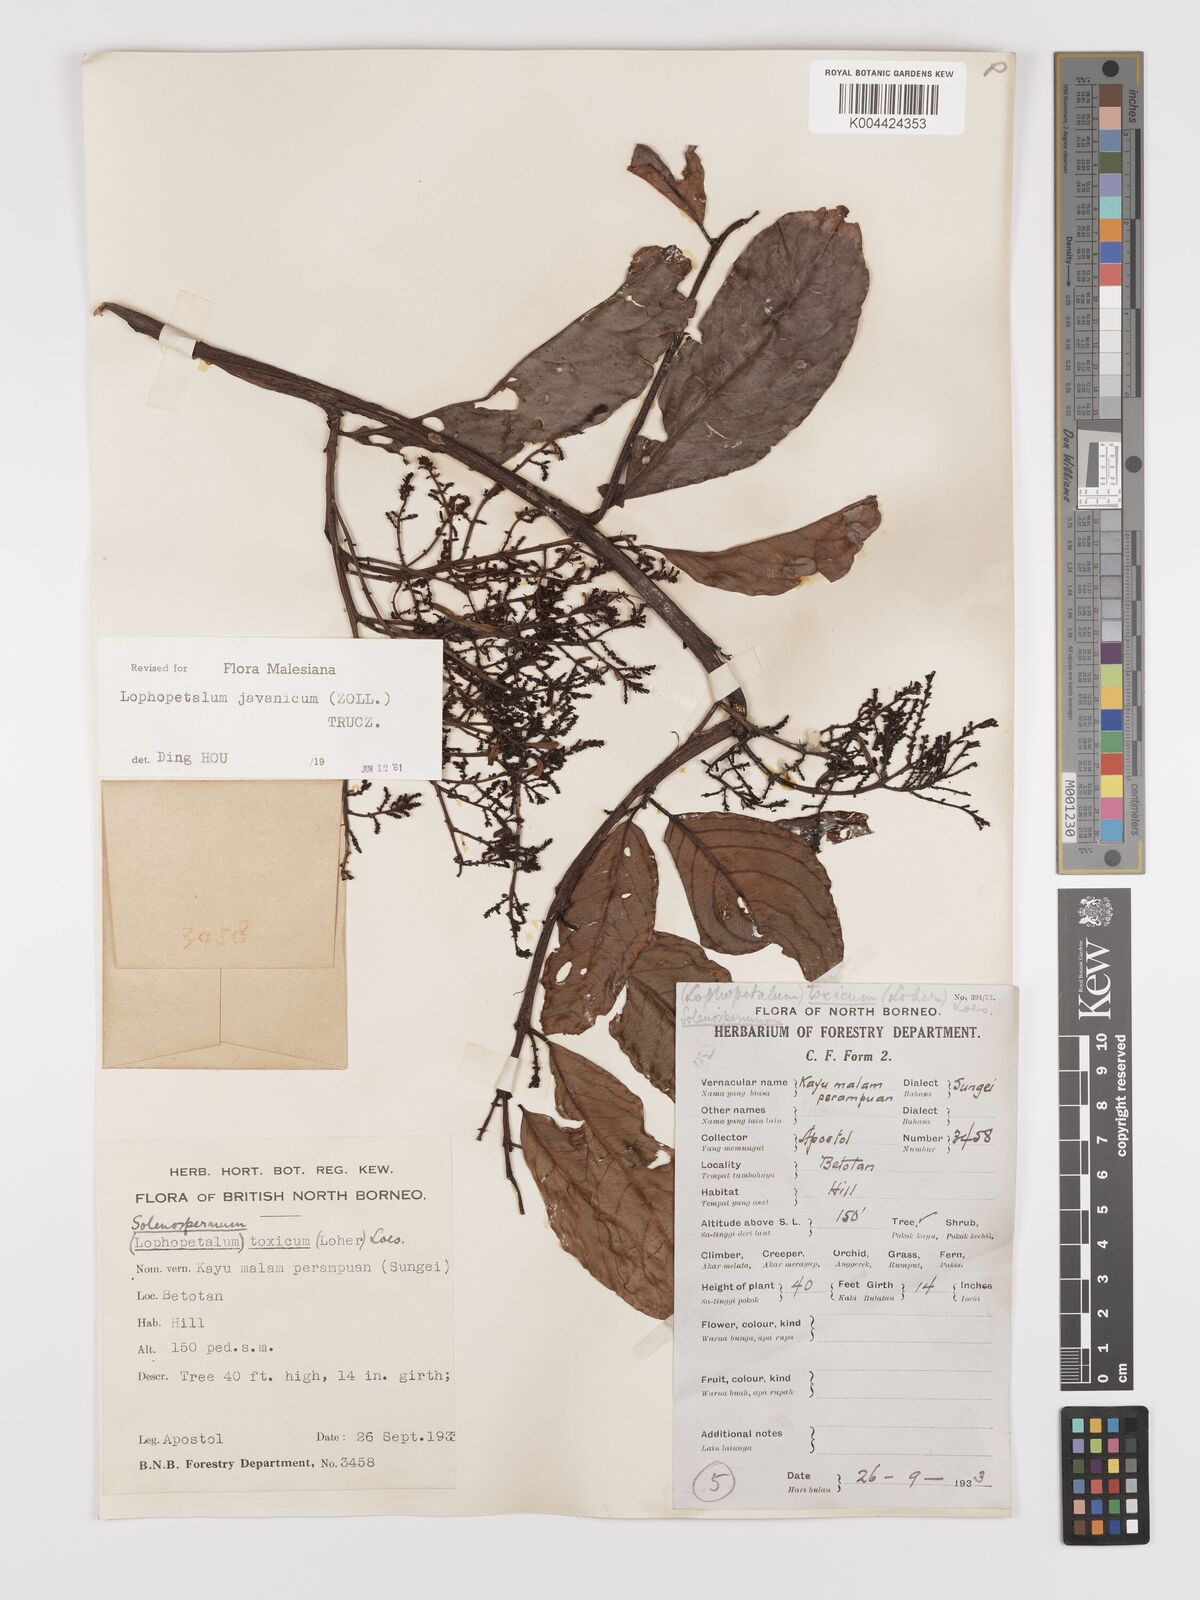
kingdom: Plantae
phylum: Tracheophyta
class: Magnoliopsida
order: Celastrales
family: Celastraceae
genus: Lophopetalum
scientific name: Lophopetalum javanicum
